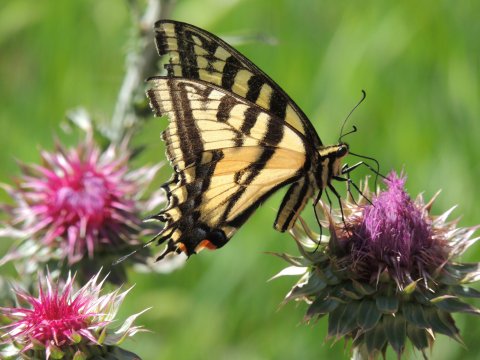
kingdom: Animalia
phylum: Arthropoda
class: Insecta
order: Lepidoptera
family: Papilionidae
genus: Papilio
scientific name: Papilio multicaudata
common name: Two-tailed Swallowtail
